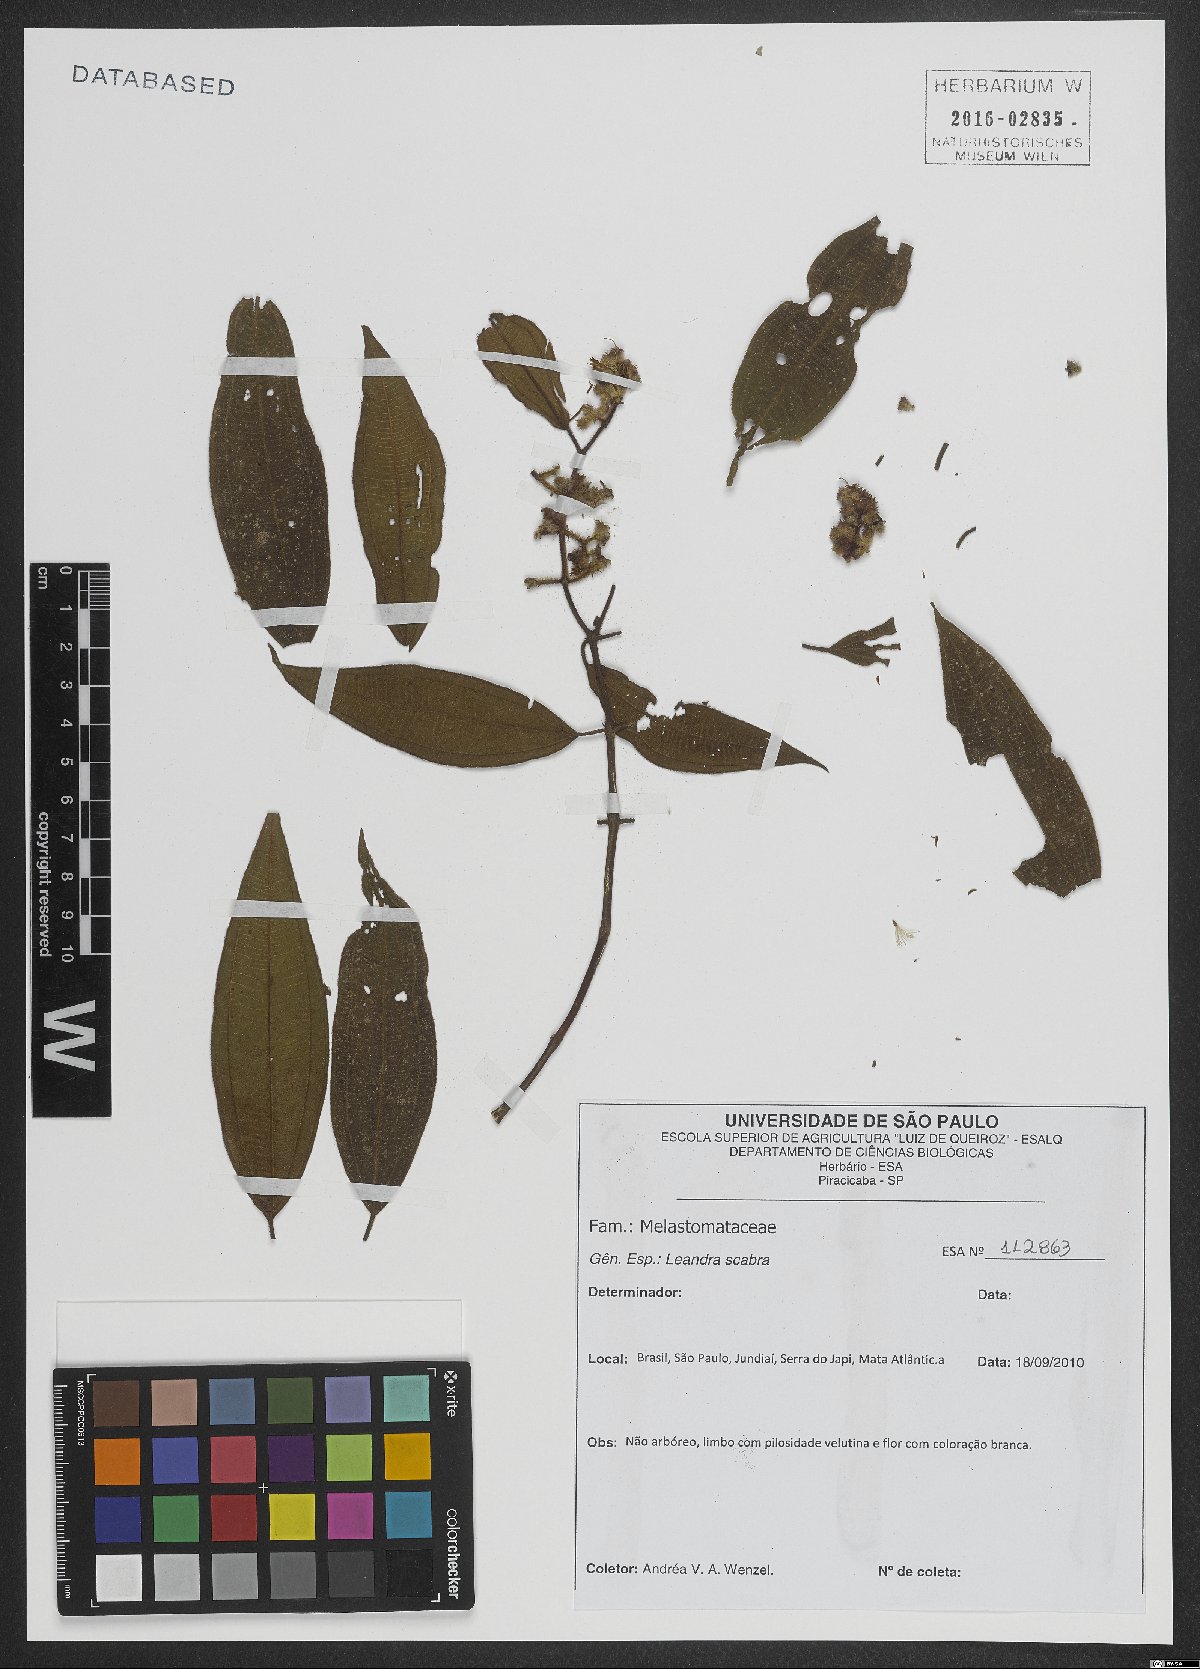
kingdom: Plantae
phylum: Tracheophyta
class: Magnoliopsida
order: Myrtales
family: Melastomataceae
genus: Miconia
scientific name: Miconia melastomoides
